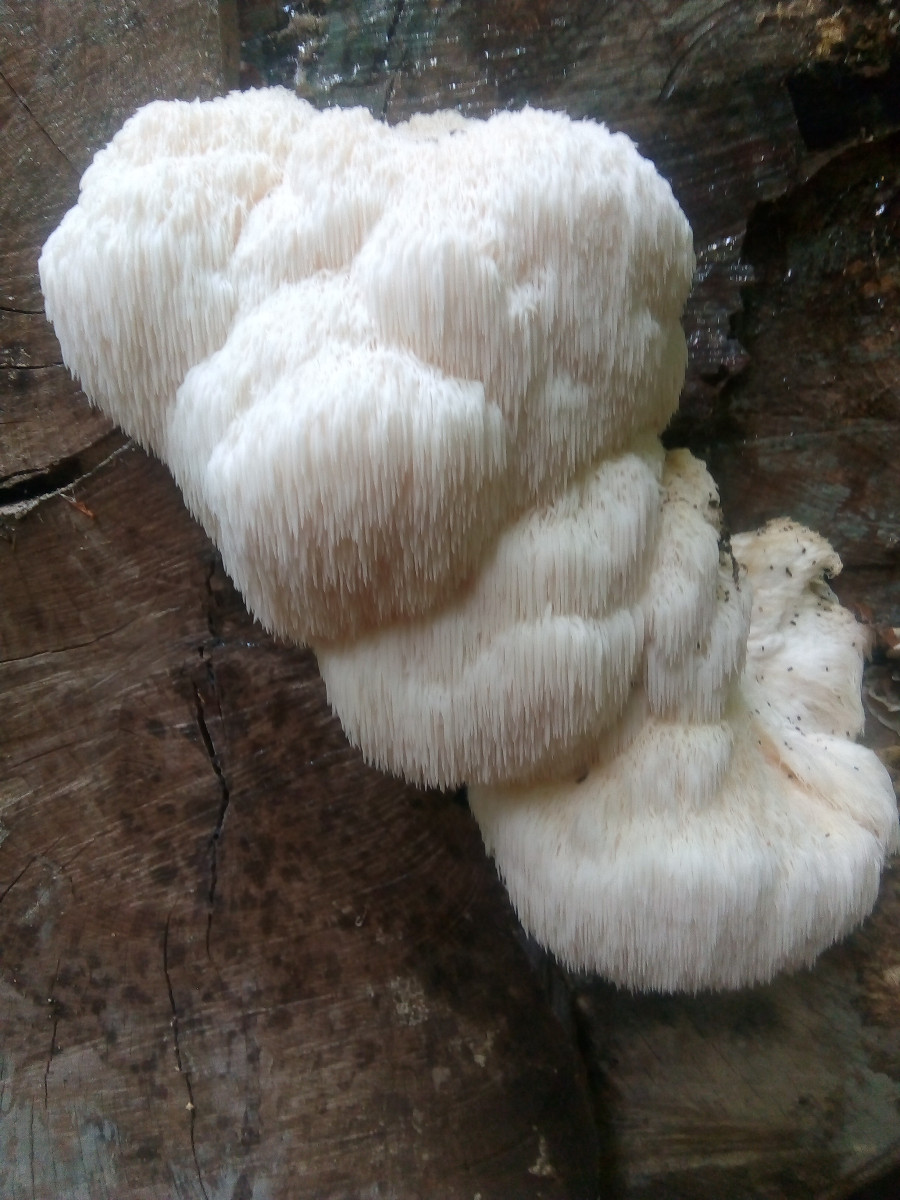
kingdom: Fungi
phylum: Basidiomycota
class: Agaricomycetes
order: Russulales
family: Hericiaceae
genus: Hericium
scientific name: Hericium erinaceus
